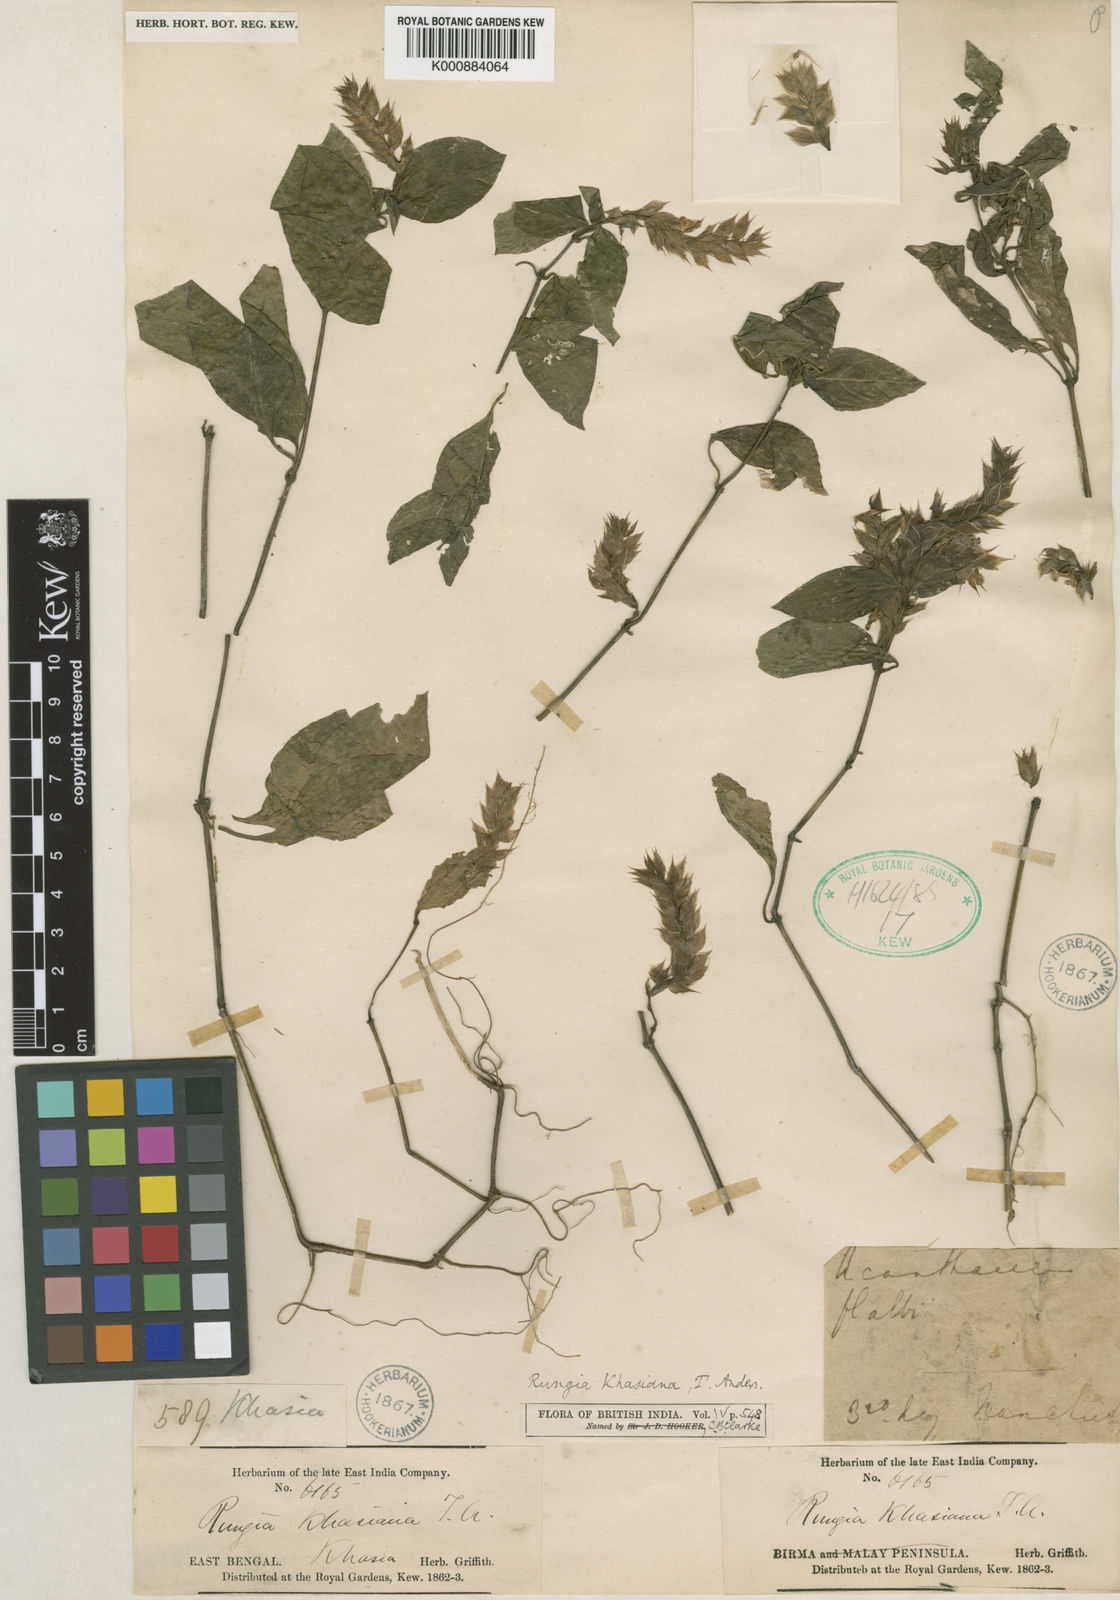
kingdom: Plantae
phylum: Tracheophyta
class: Magnoliopsida
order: Lamiales
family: Acanthaceae
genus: Rostellularia
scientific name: Rostellularia khasiana
